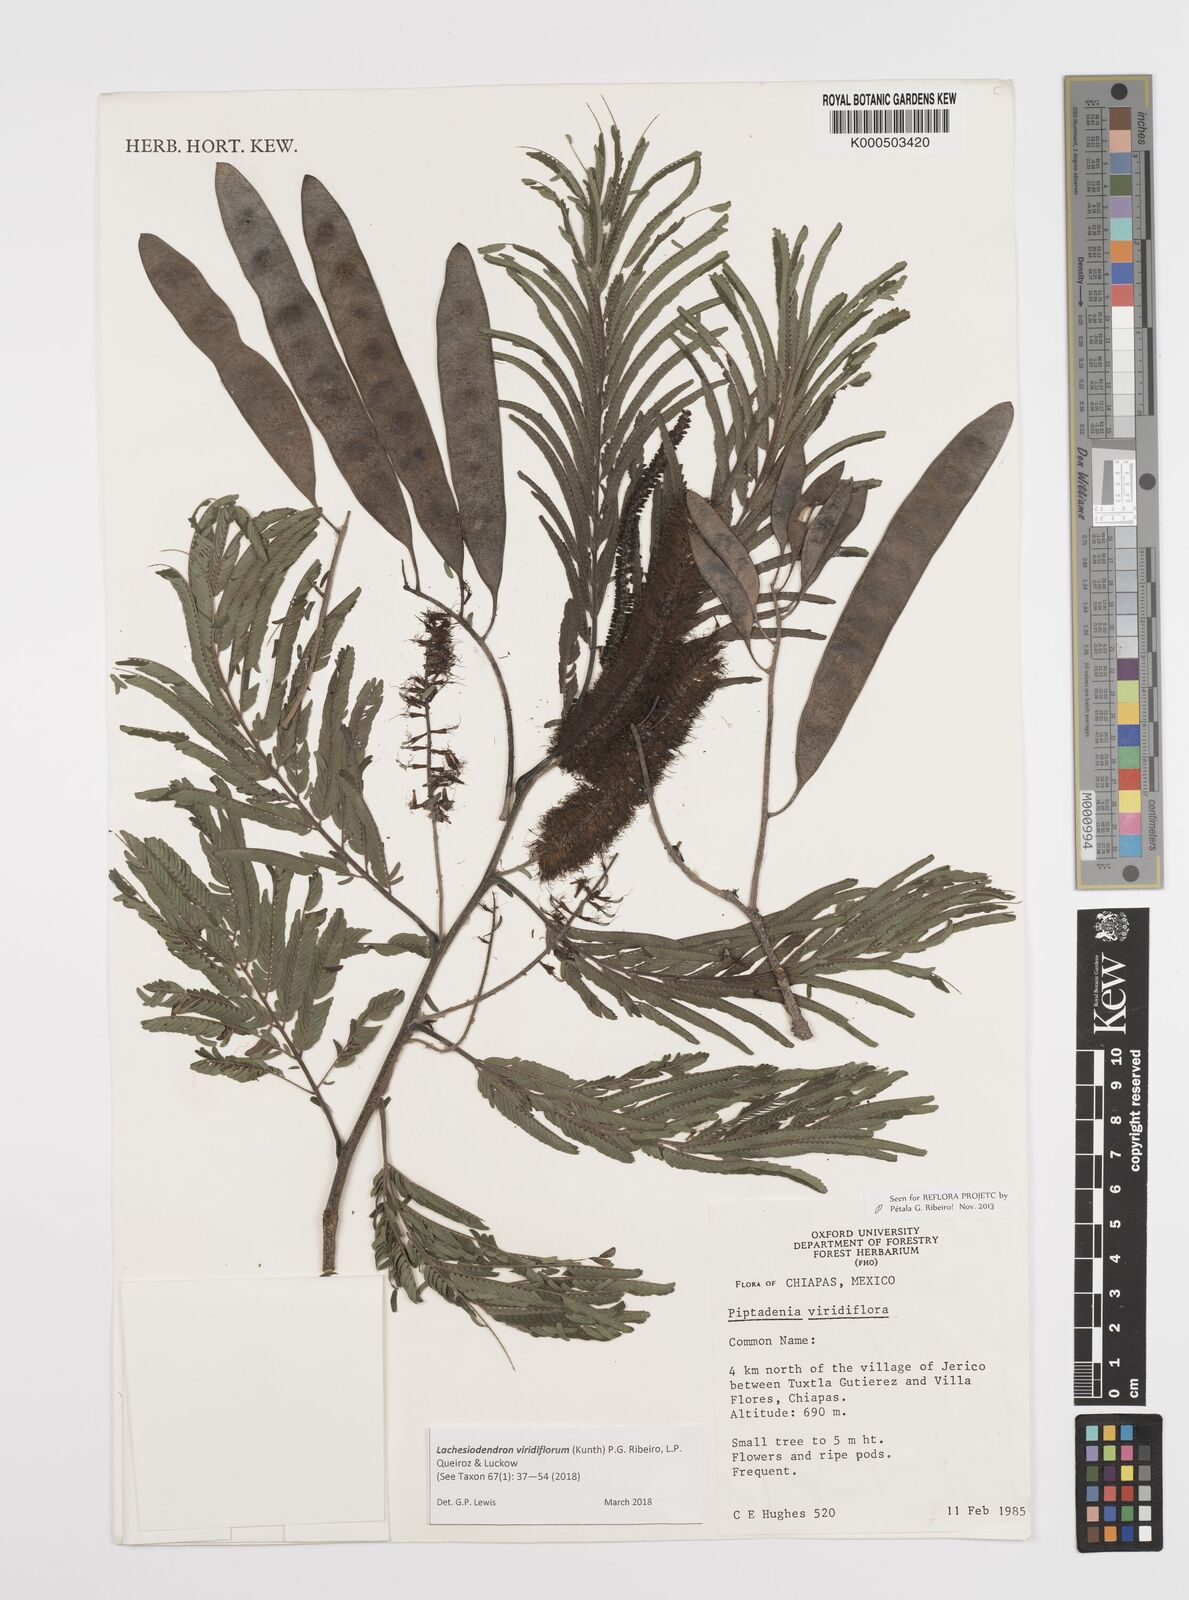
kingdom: Plantae
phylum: Tracheophyta
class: Magnoliopsida
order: Fabales
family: Fabaceae
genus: Lachesiodendron
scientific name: Lachesiodendron viridiflorum
